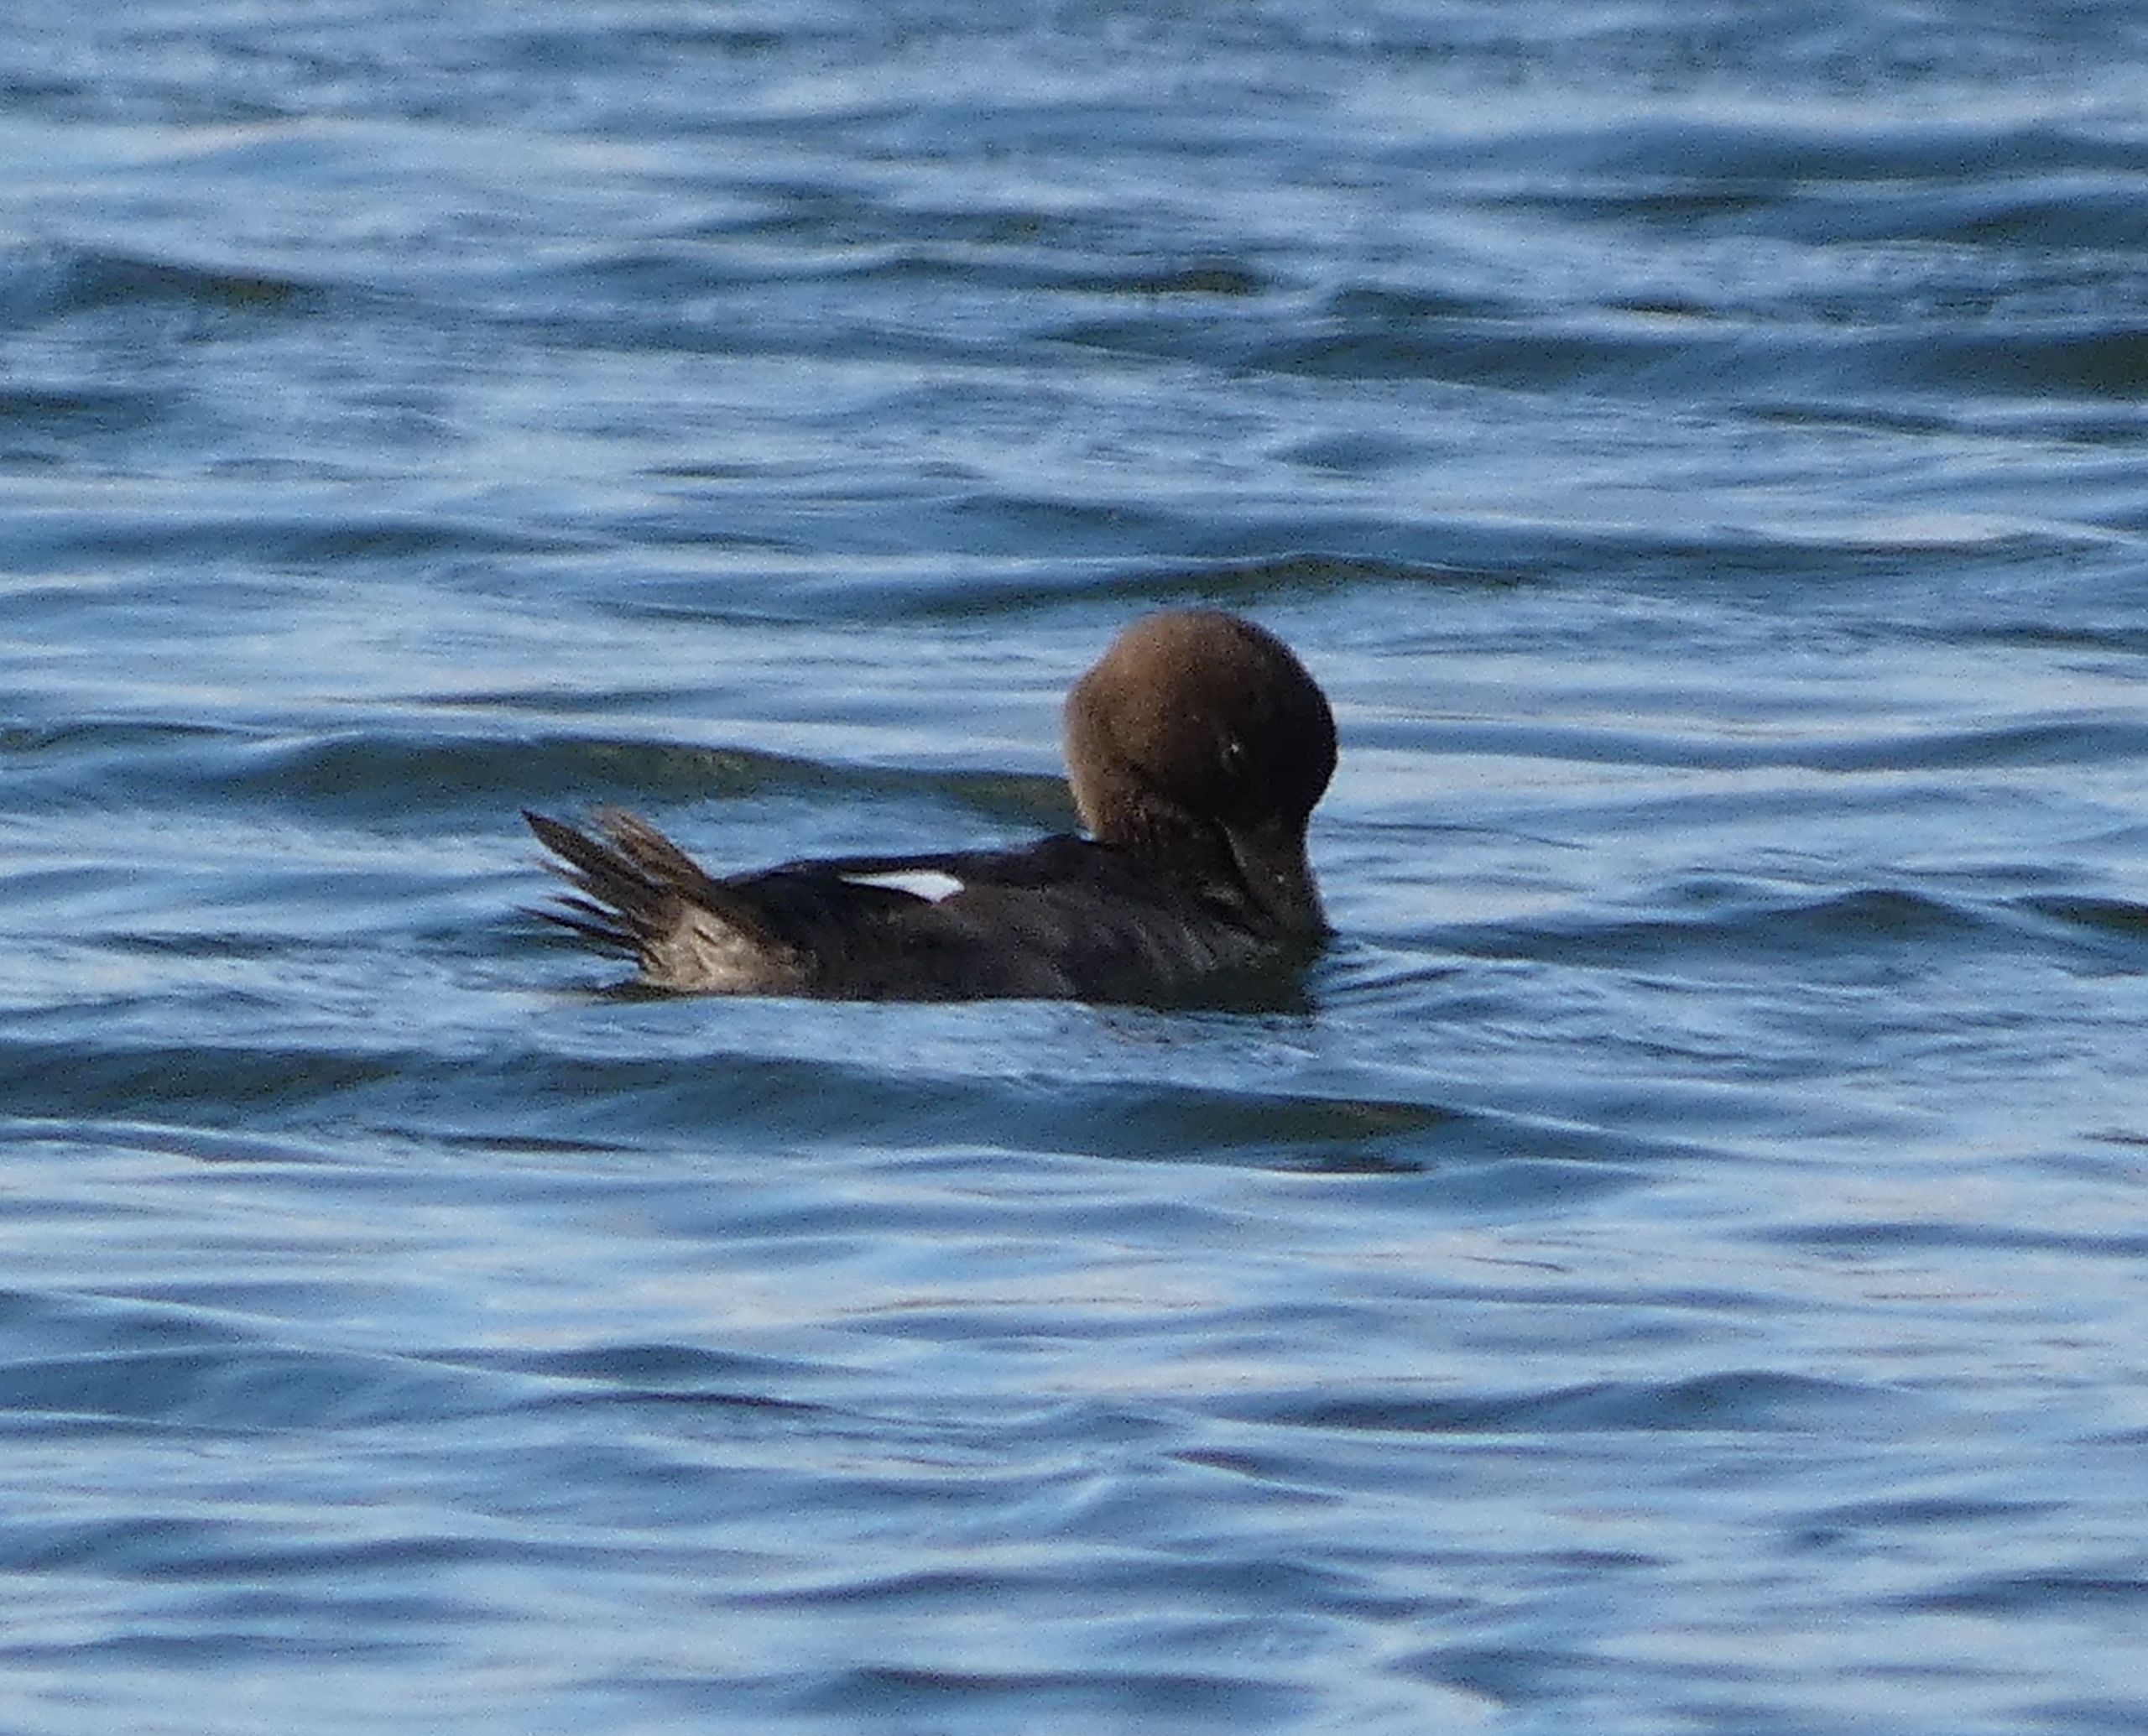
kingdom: Animalia
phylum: Chordata
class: Aves
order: Anseriformes
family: Anatidae
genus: Bucephala
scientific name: Bucephala clangula
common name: Hvinand
